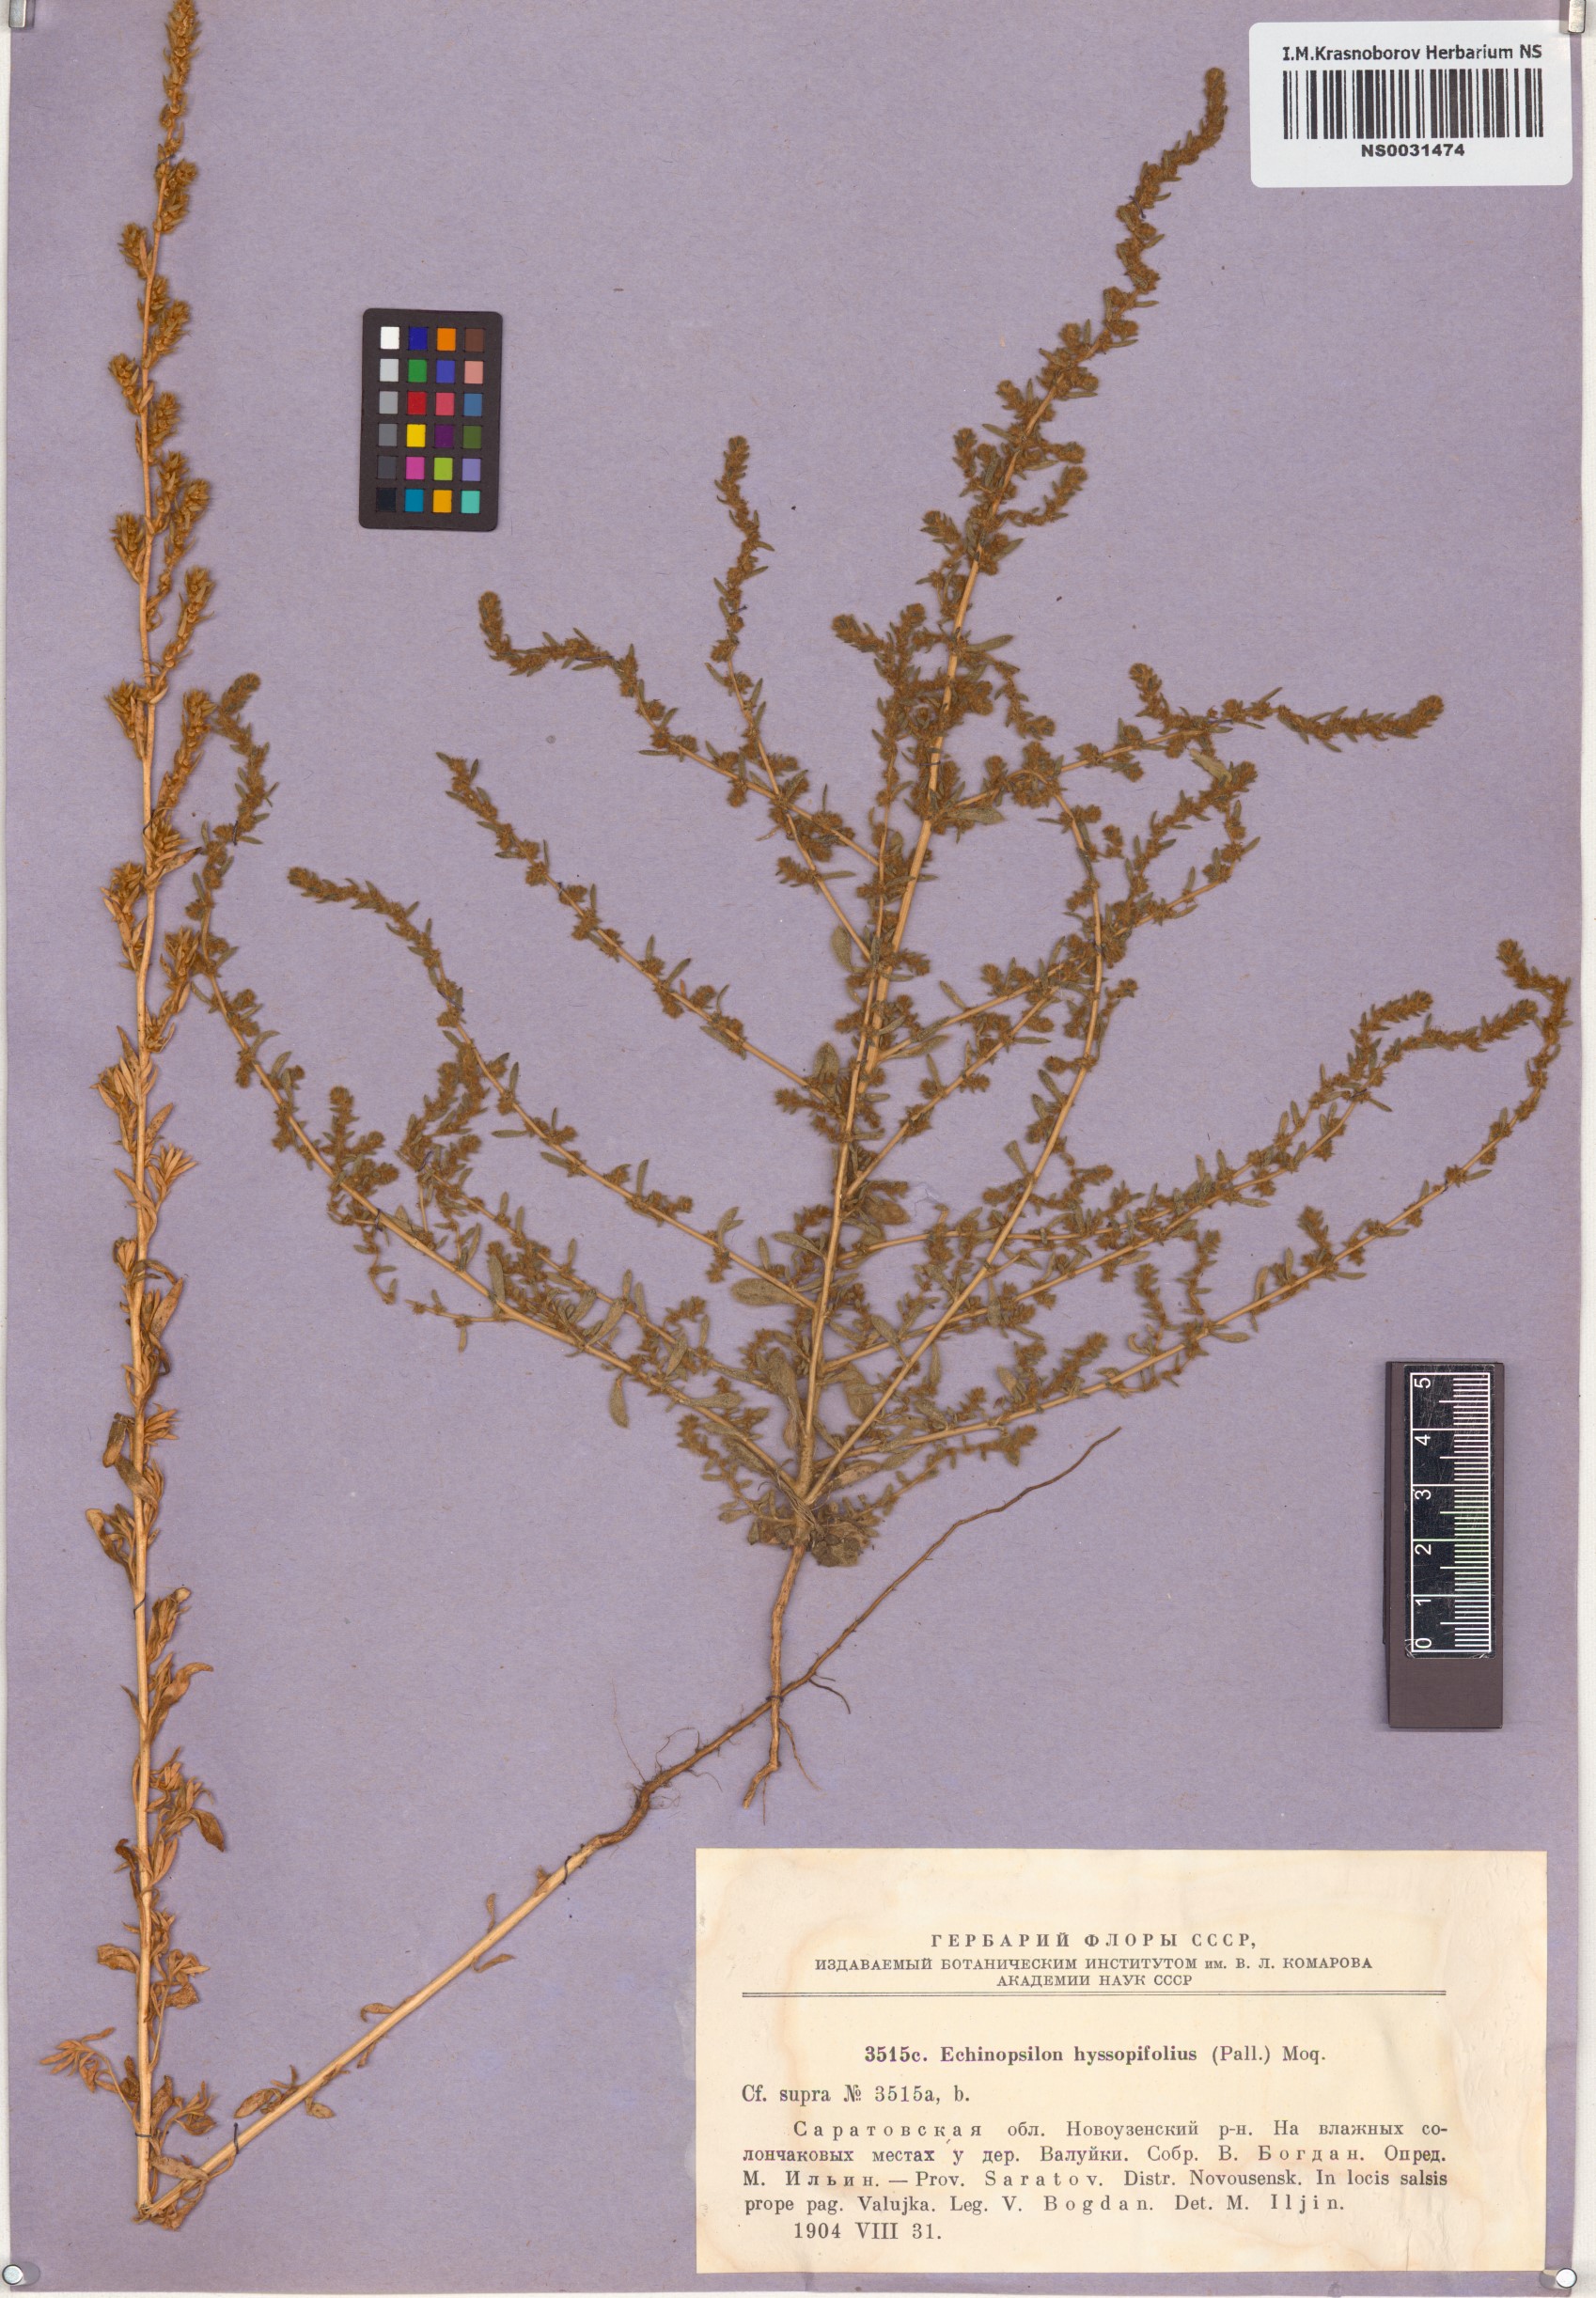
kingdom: Plantae
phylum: Tracheophyta
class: Magnoliopsida
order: Caryophyllales
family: Amaranthaceae
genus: Bassia
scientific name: Bassia hyssopifolia
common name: Fivehorn smotherweed
